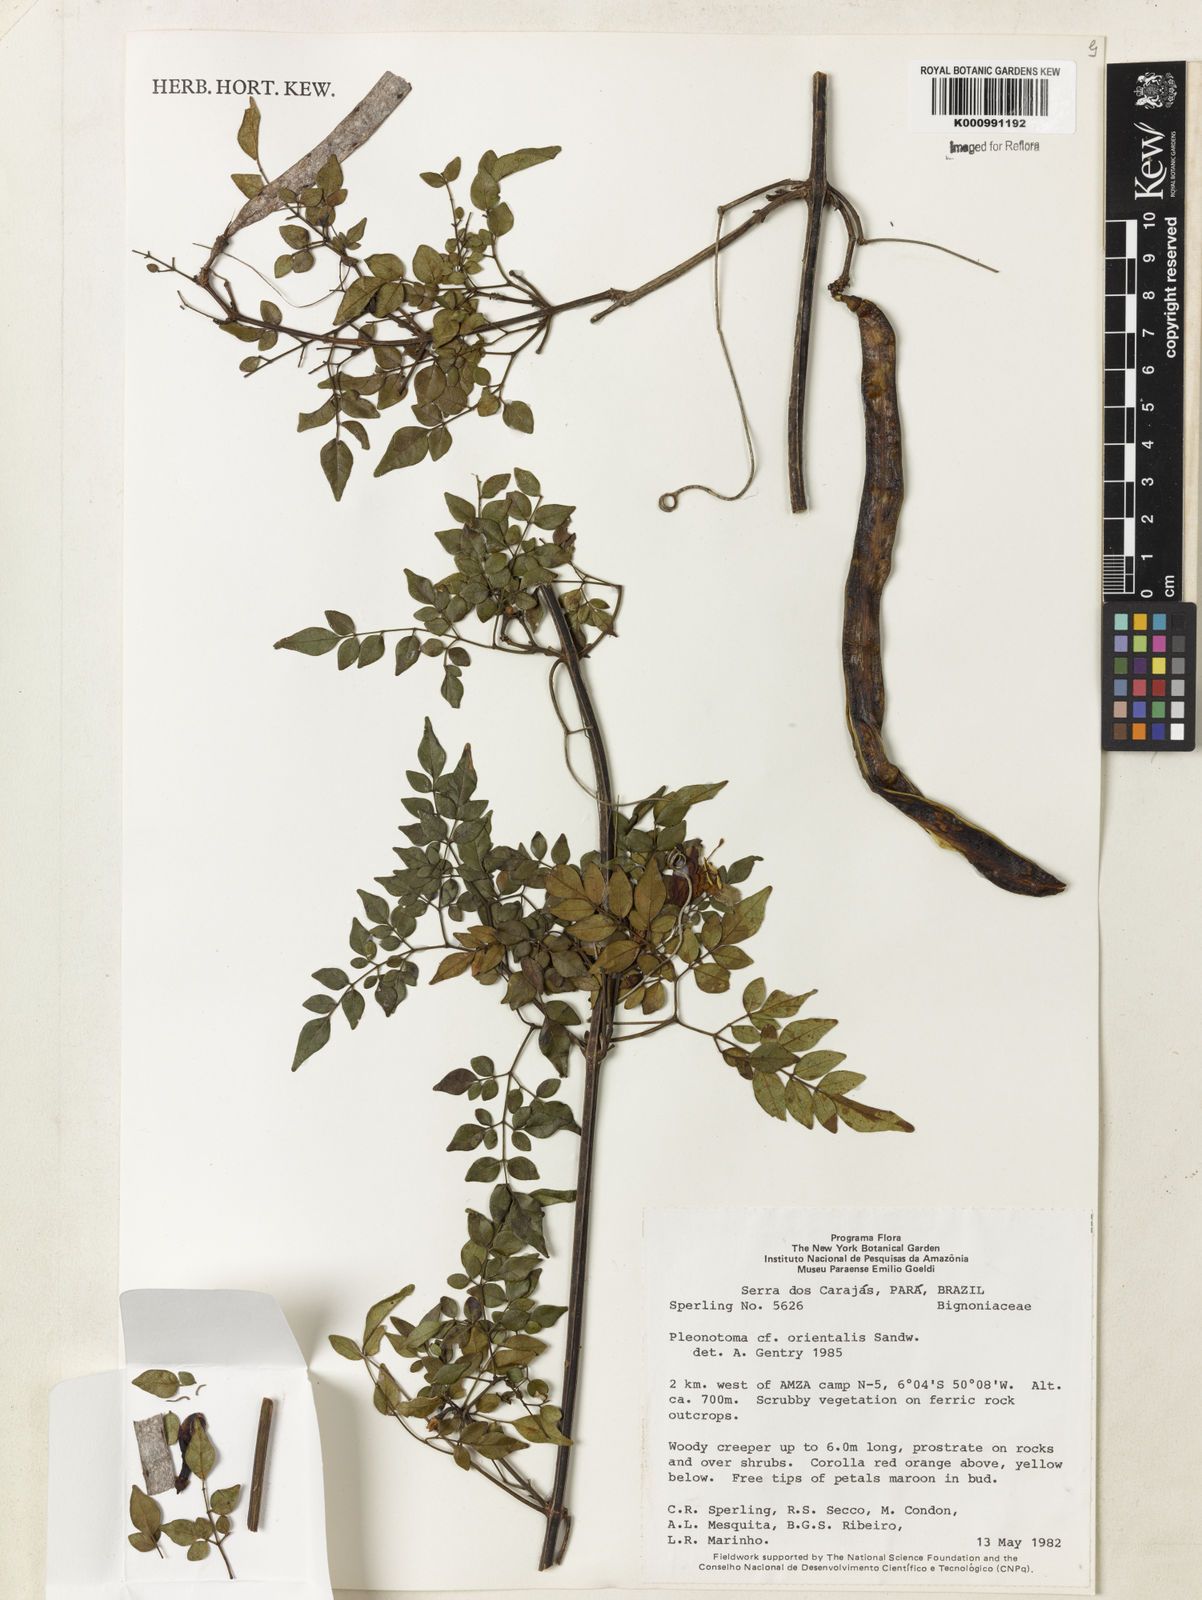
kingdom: Plantae
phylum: Tracheophyta
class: Magnoliopsida
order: Lamiales
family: Bignoniaceae
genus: Pleonotoma
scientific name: Pleonotoma orientalis
